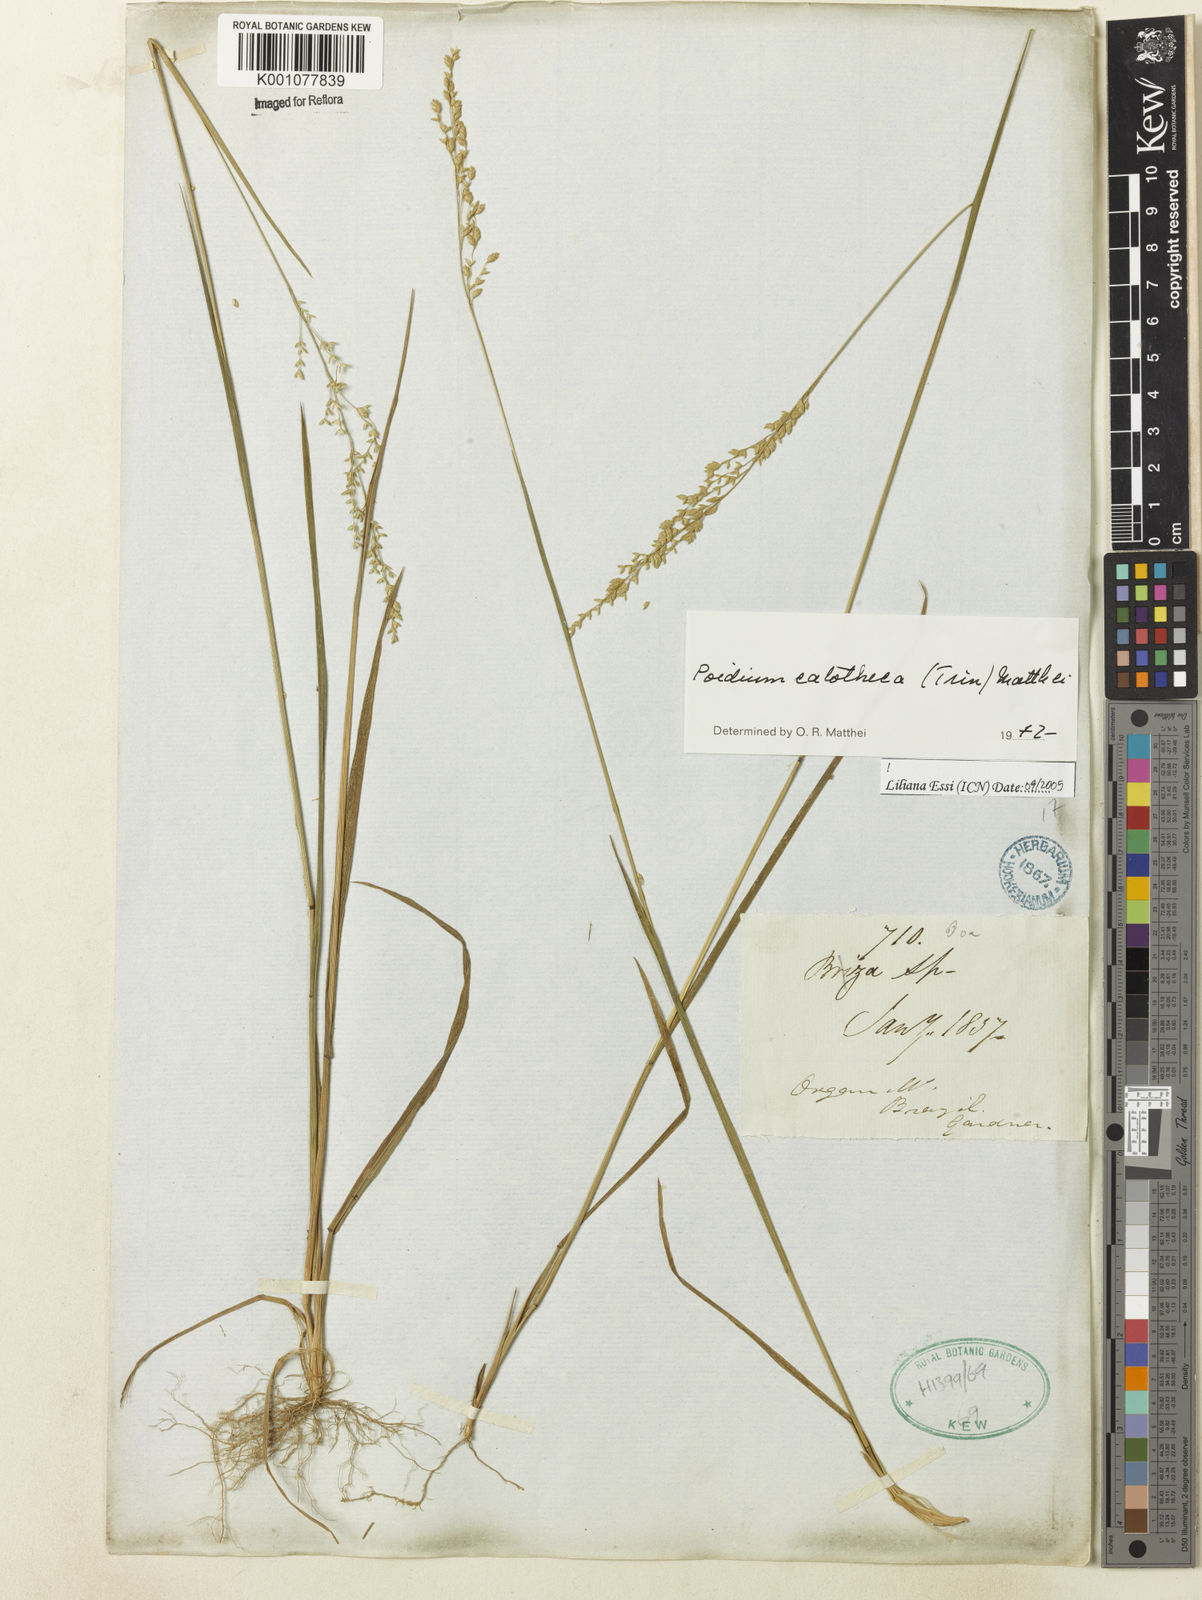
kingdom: Plantae
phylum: Tracheophyta
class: Liliopsida
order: Poales
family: Poaceae
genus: Poidium
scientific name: Poidium calotheca
